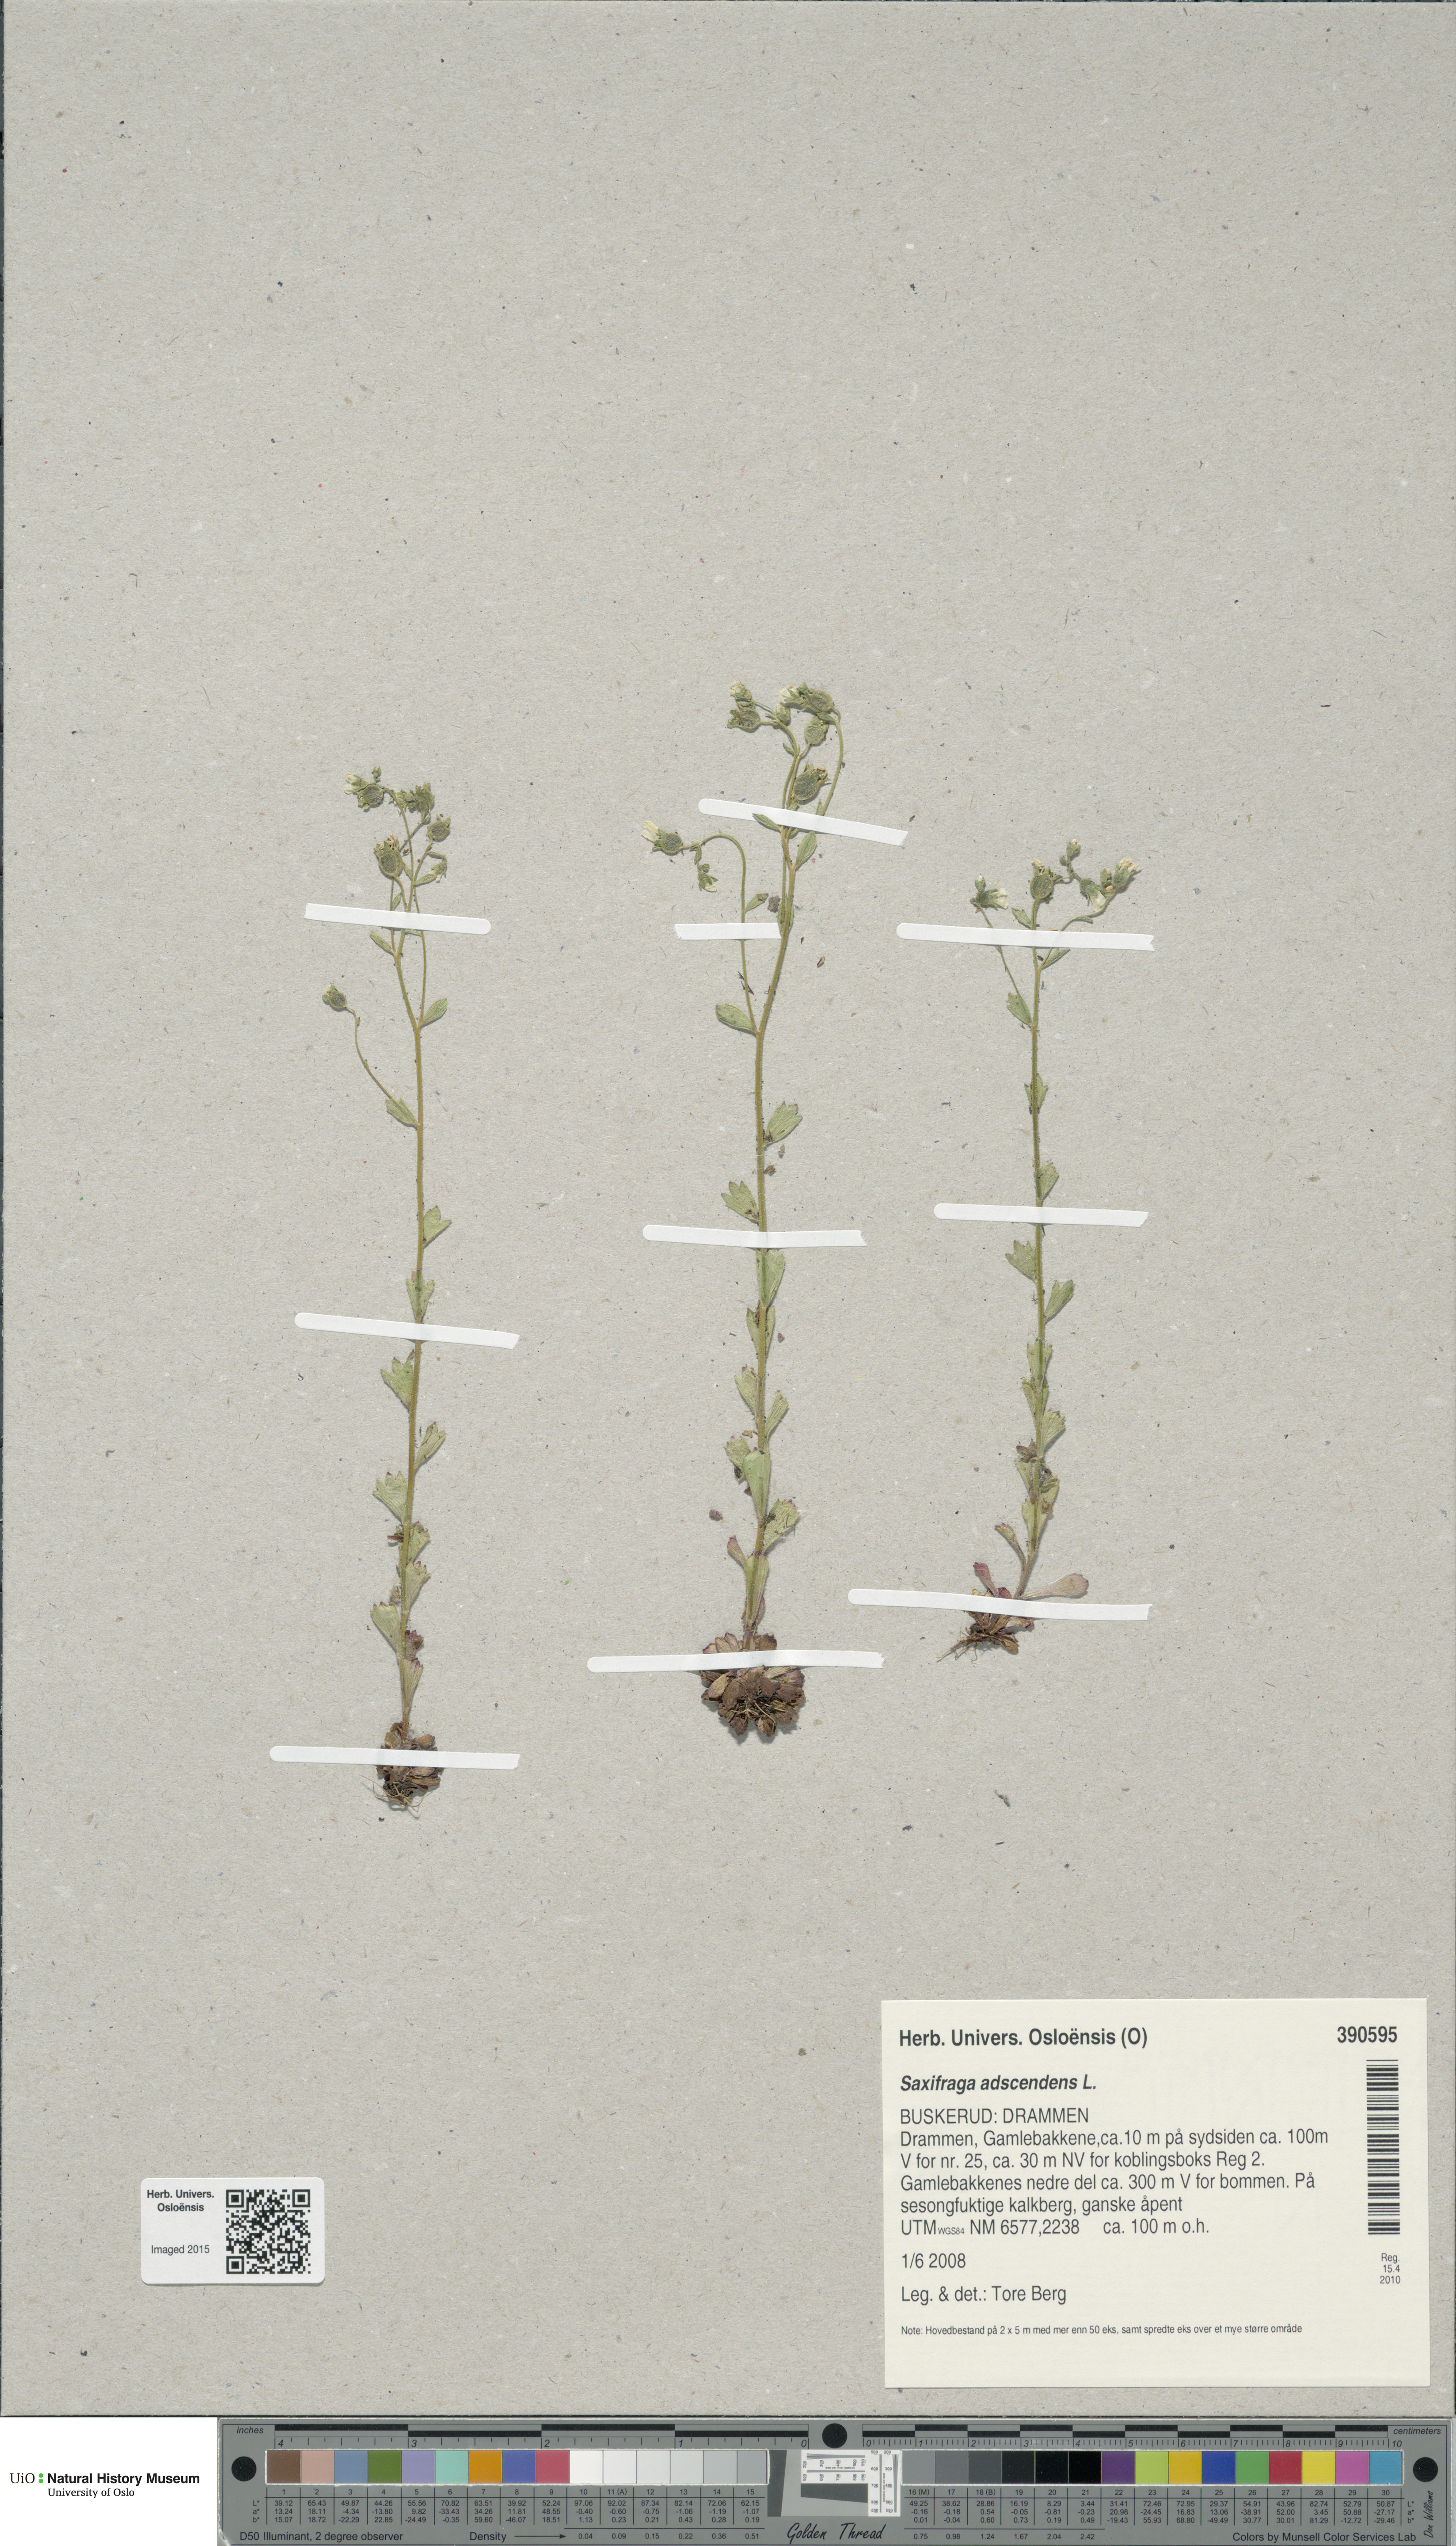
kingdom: Plantae
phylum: Tracheophyta
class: Magnoliopsida
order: Saxifragales
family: Saxifragaceae
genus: Saxifraga
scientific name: Saxifraga adscendens
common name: Ascending saxifrage
